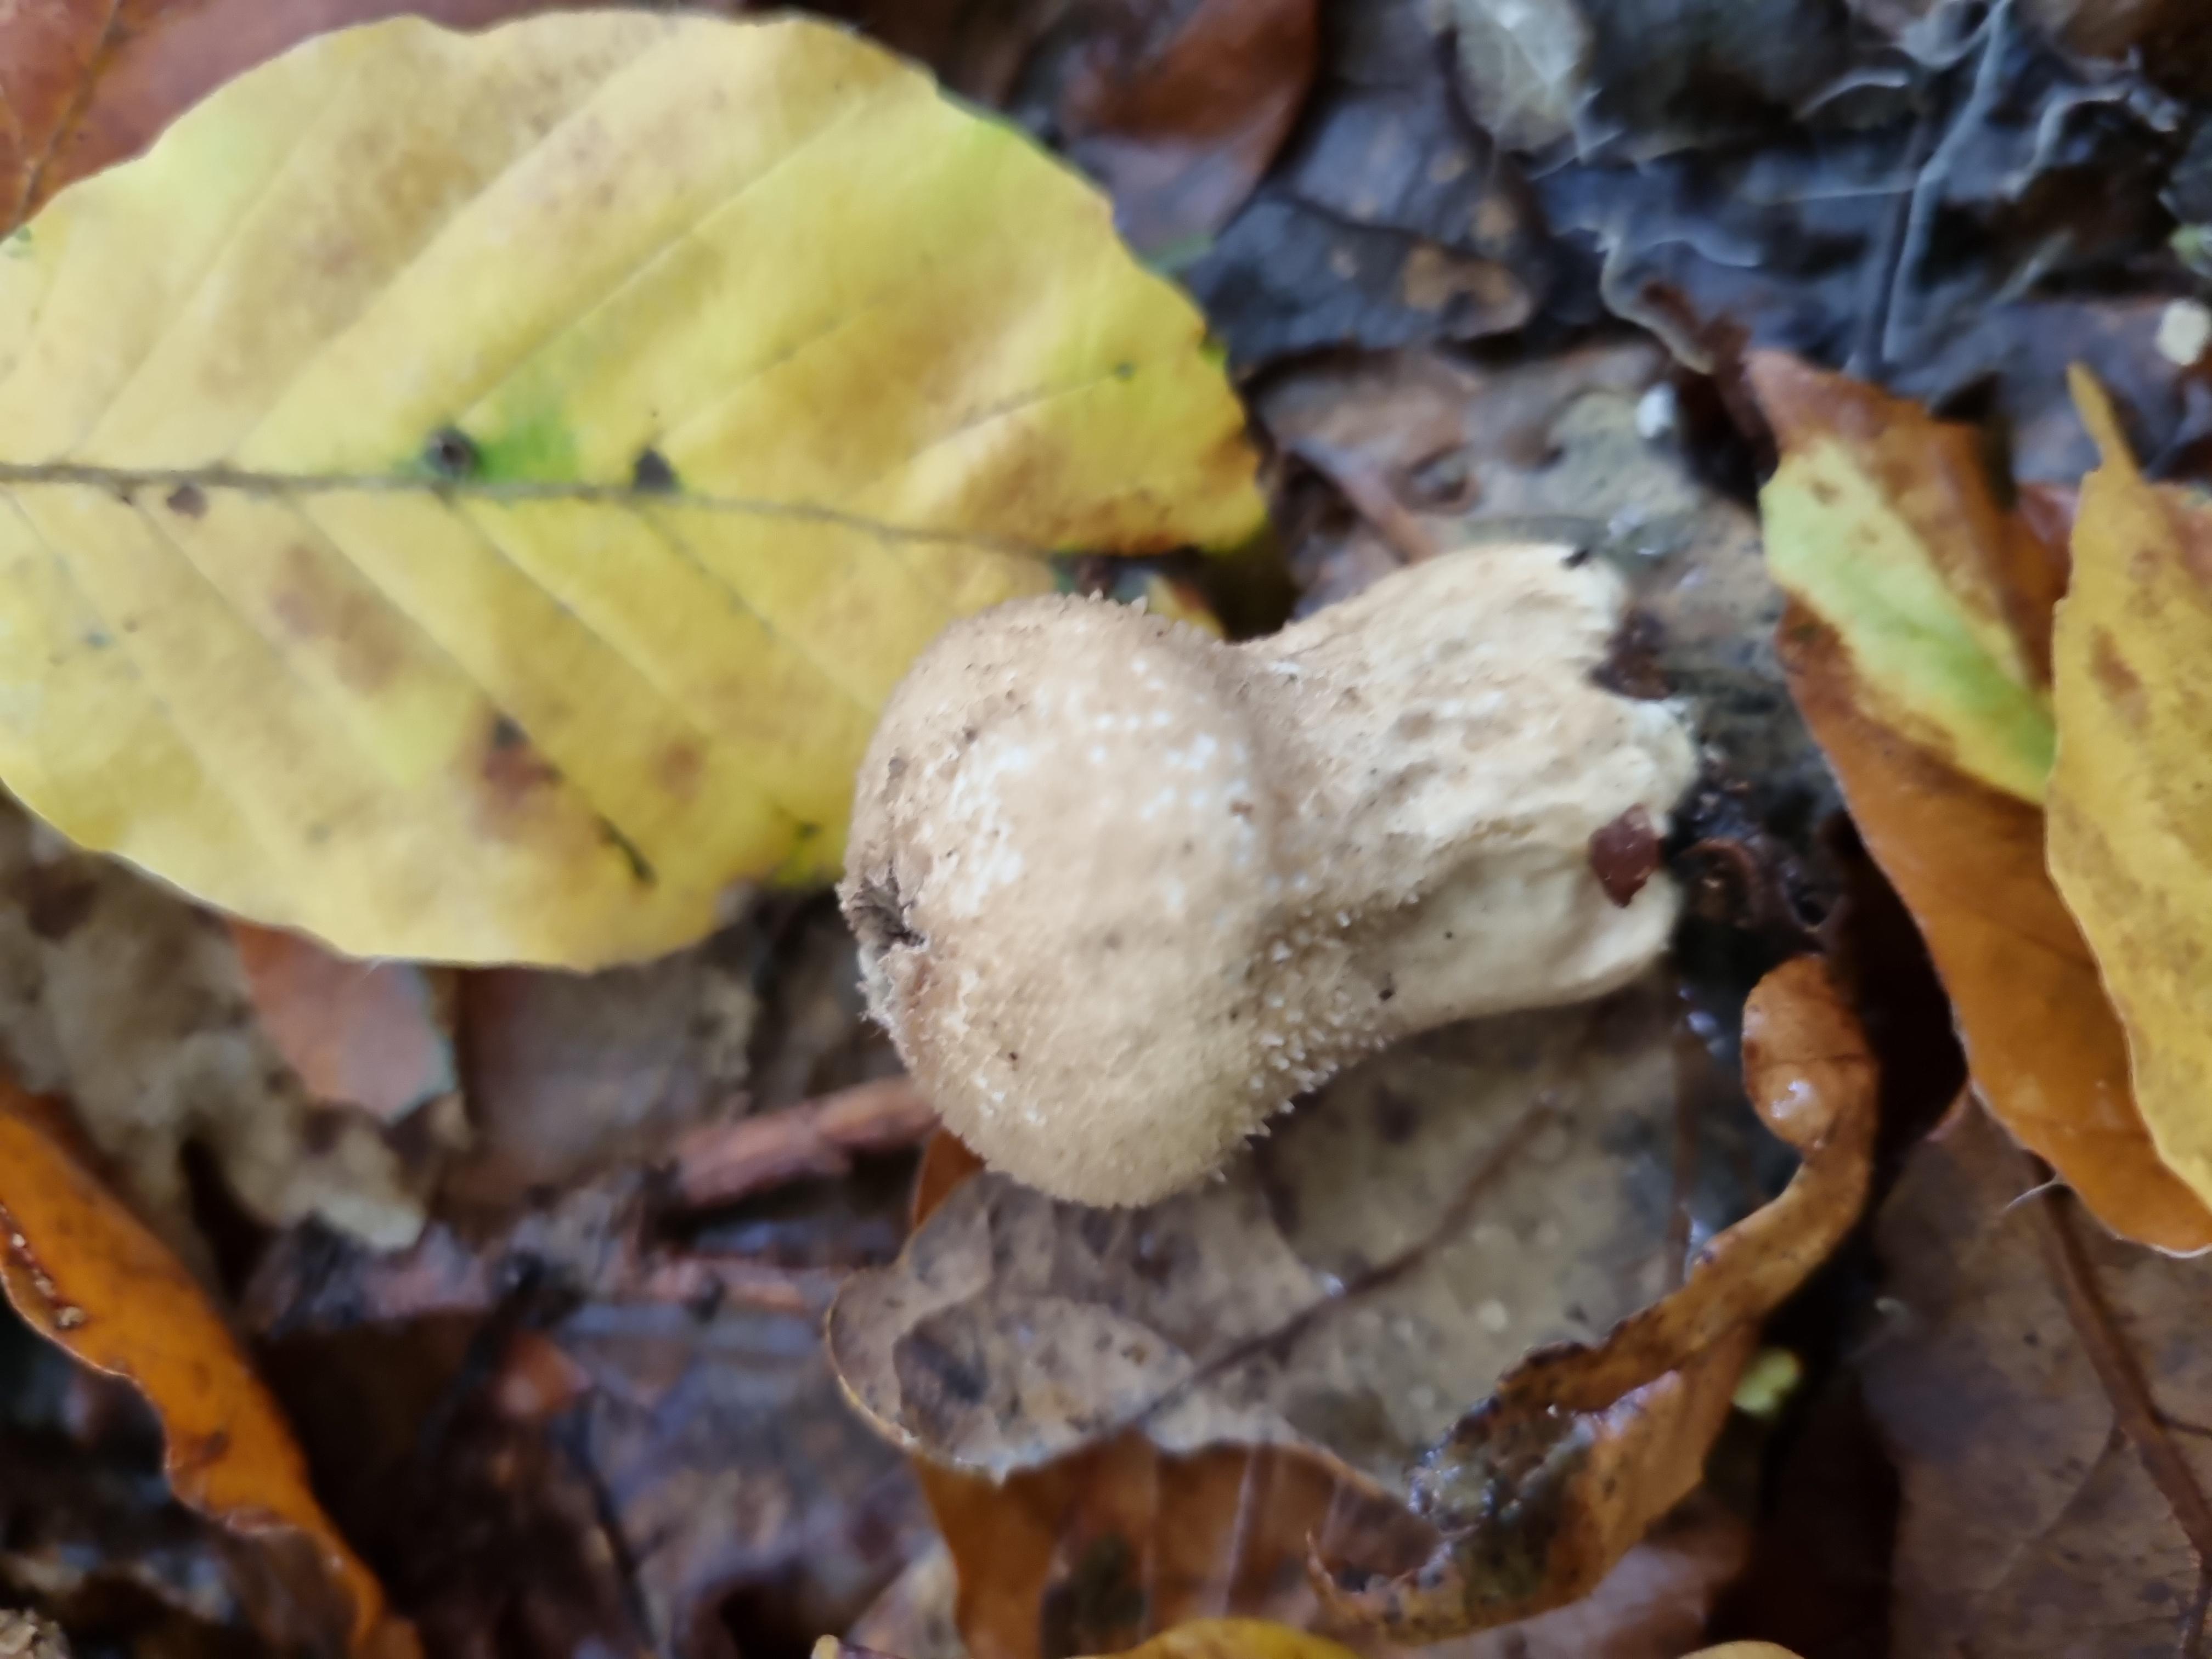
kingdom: Fungi
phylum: Basidiomycota
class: Agaricomycetes
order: Agaricales
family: Lycoperdaceae
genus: Lycoperdon
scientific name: Lycoperdon perlatum
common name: krystal-støvbold
